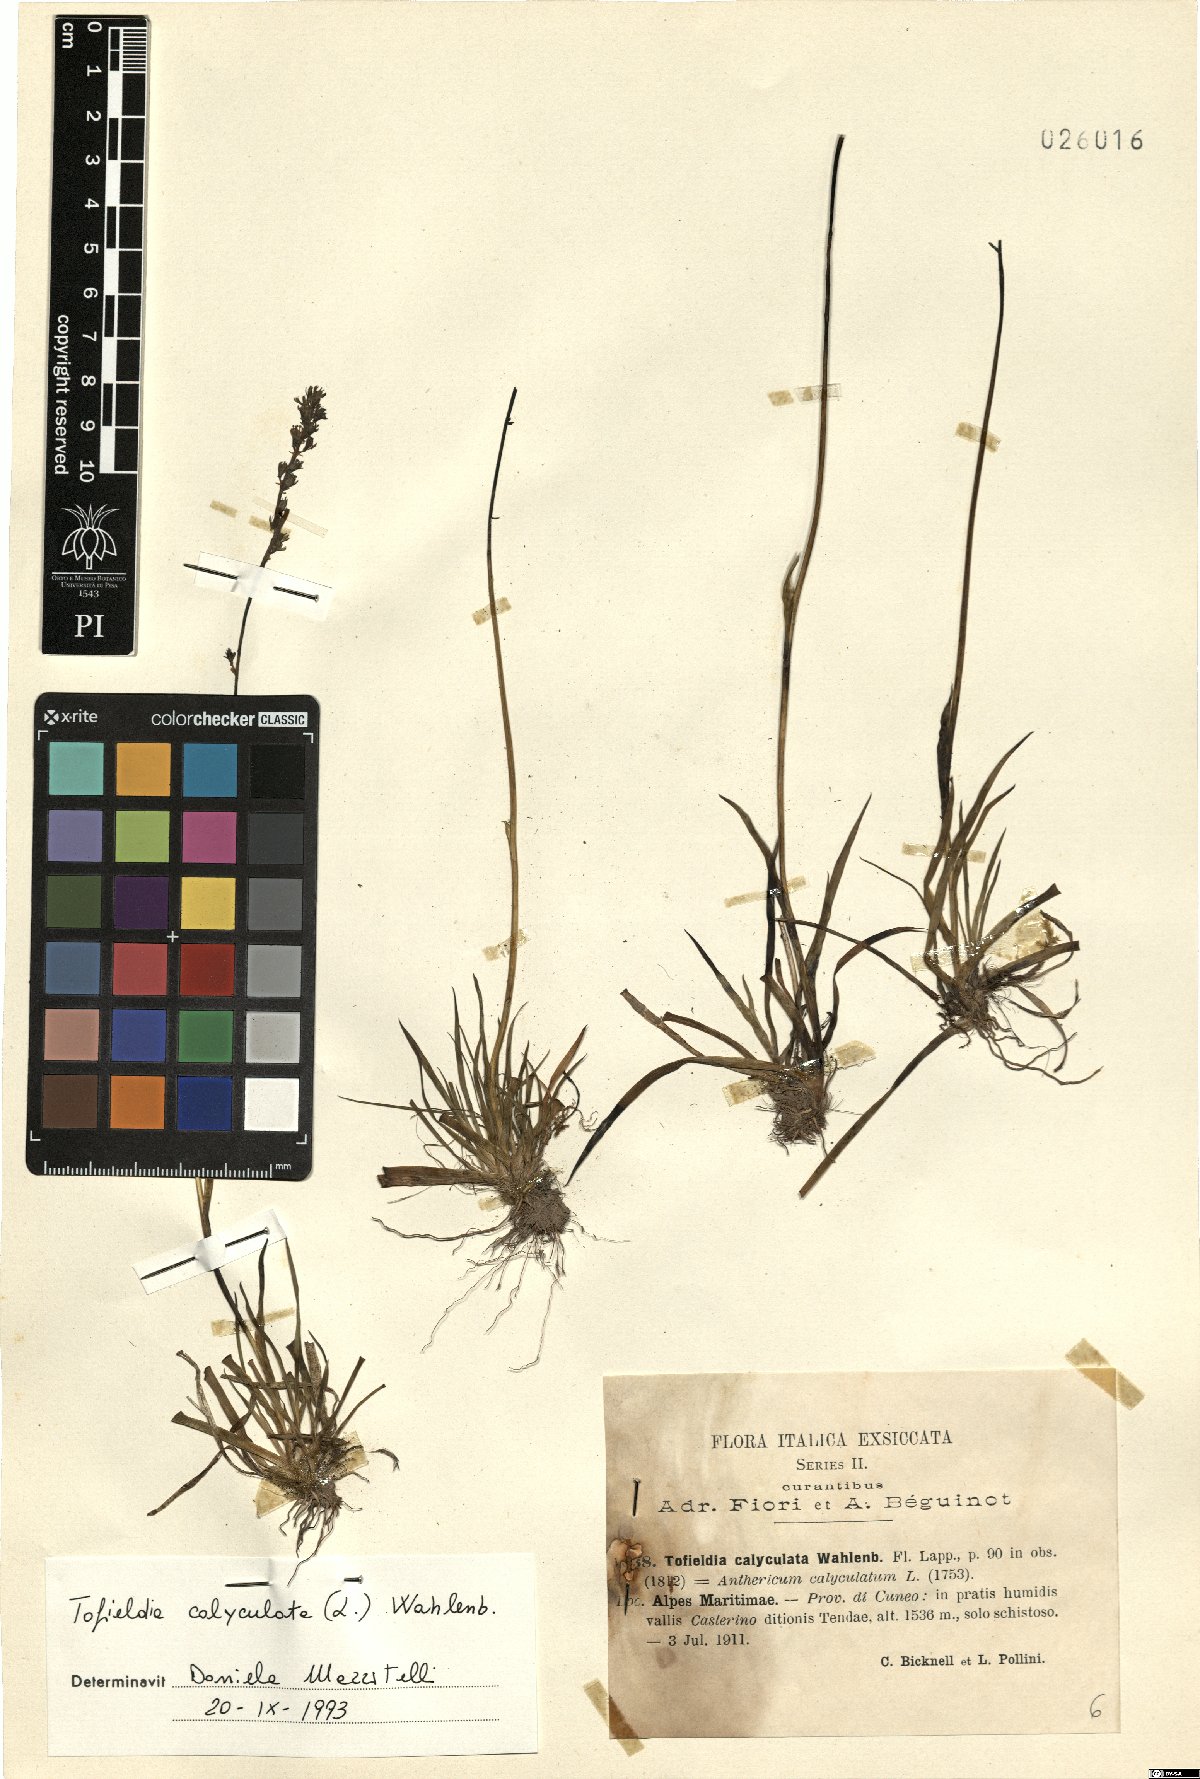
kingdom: Plantae
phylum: Tracheophyta
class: Liliopsida
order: Alismatales
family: Tofieldiaceae
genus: Tofieldia
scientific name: Tofieldia calyculata
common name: German-asphodel
